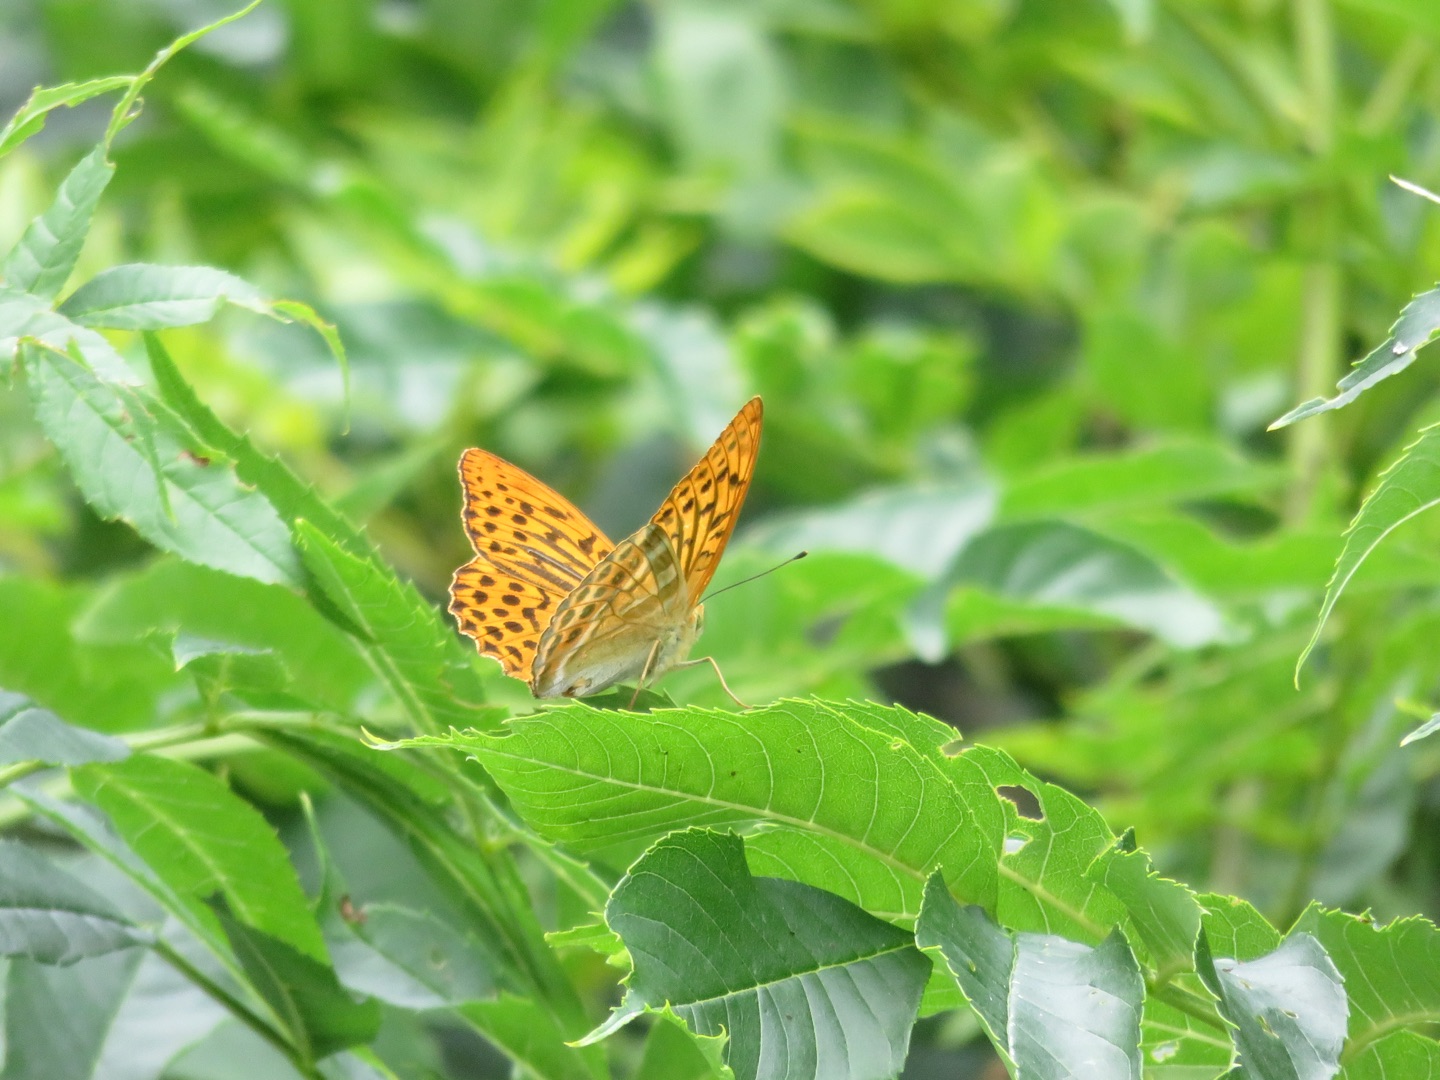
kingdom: Animalia
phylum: Arthropoda
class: Insecta
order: Lepidoptera
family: Nymphalidae
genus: Argynnis
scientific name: Argynnis paphia
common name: Kejserkåbe
